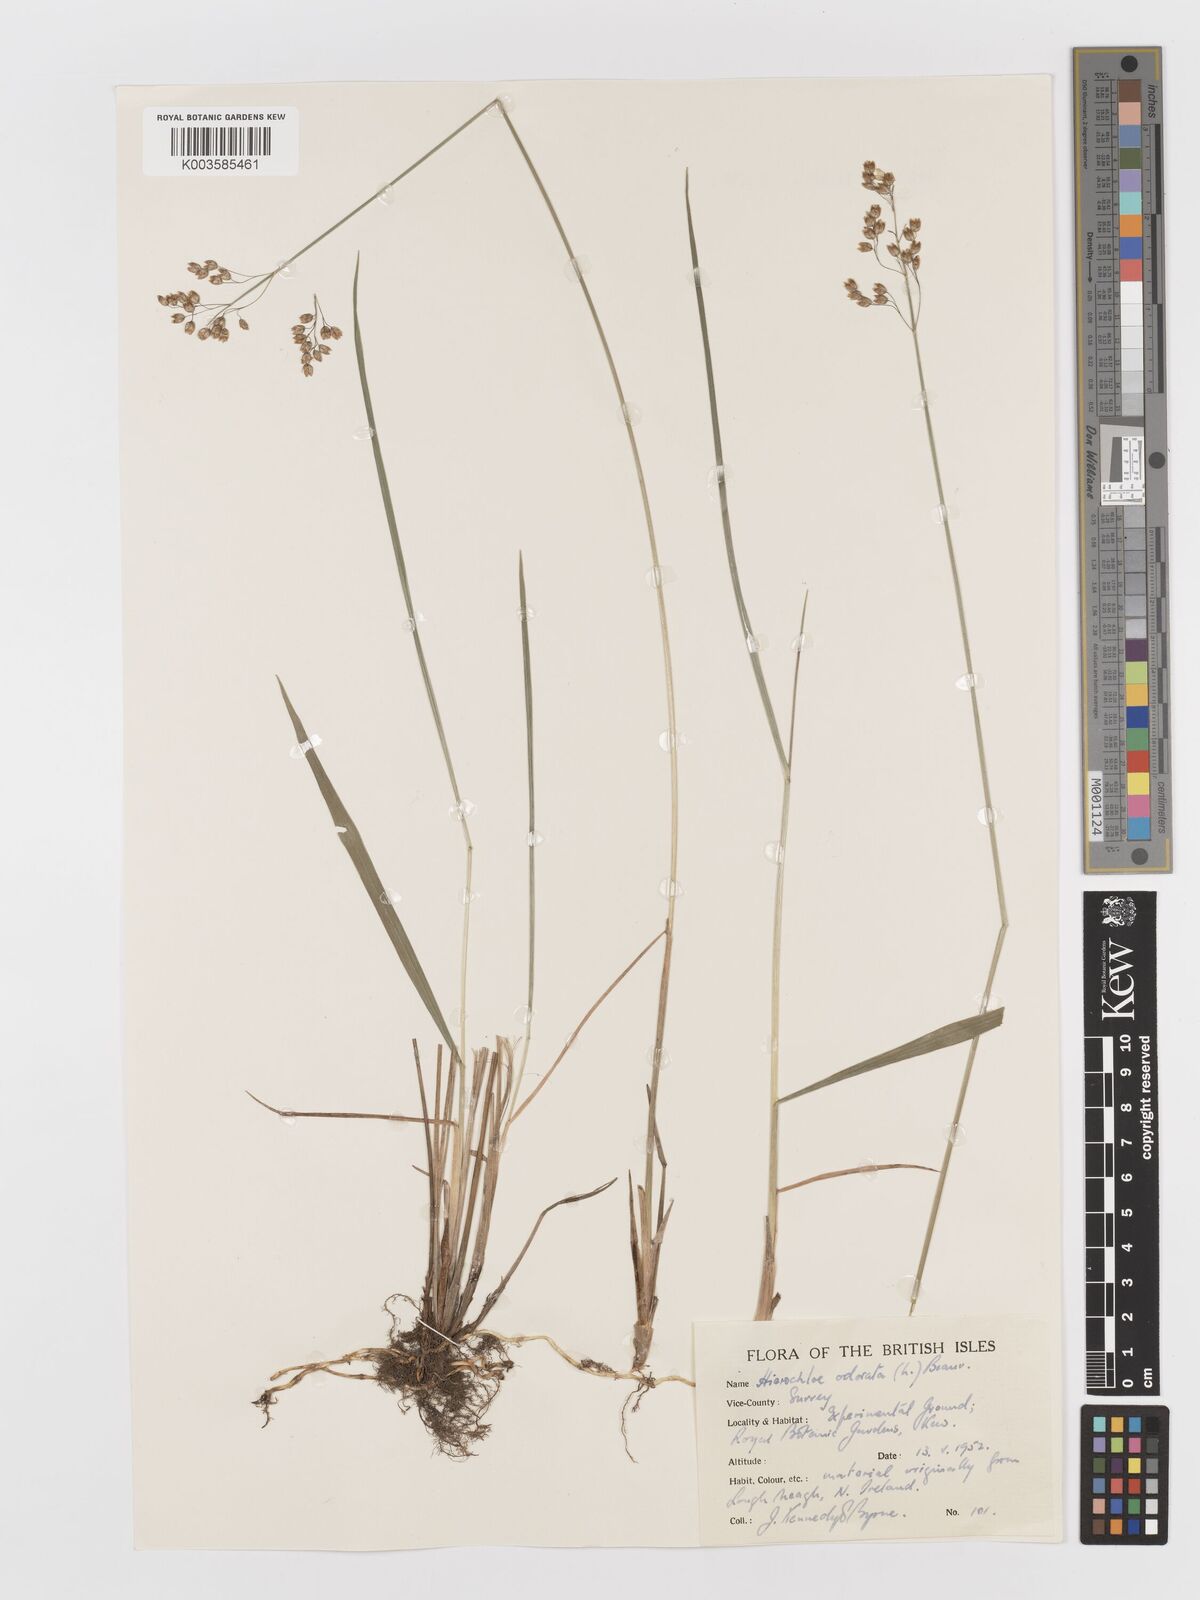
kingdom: Plantae
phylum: Tracheophyta
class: Liliopsida
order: Poales
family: Poaceae
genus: Anthoxanthum
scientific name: Anthoxanthum nitens
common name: Holy grass
